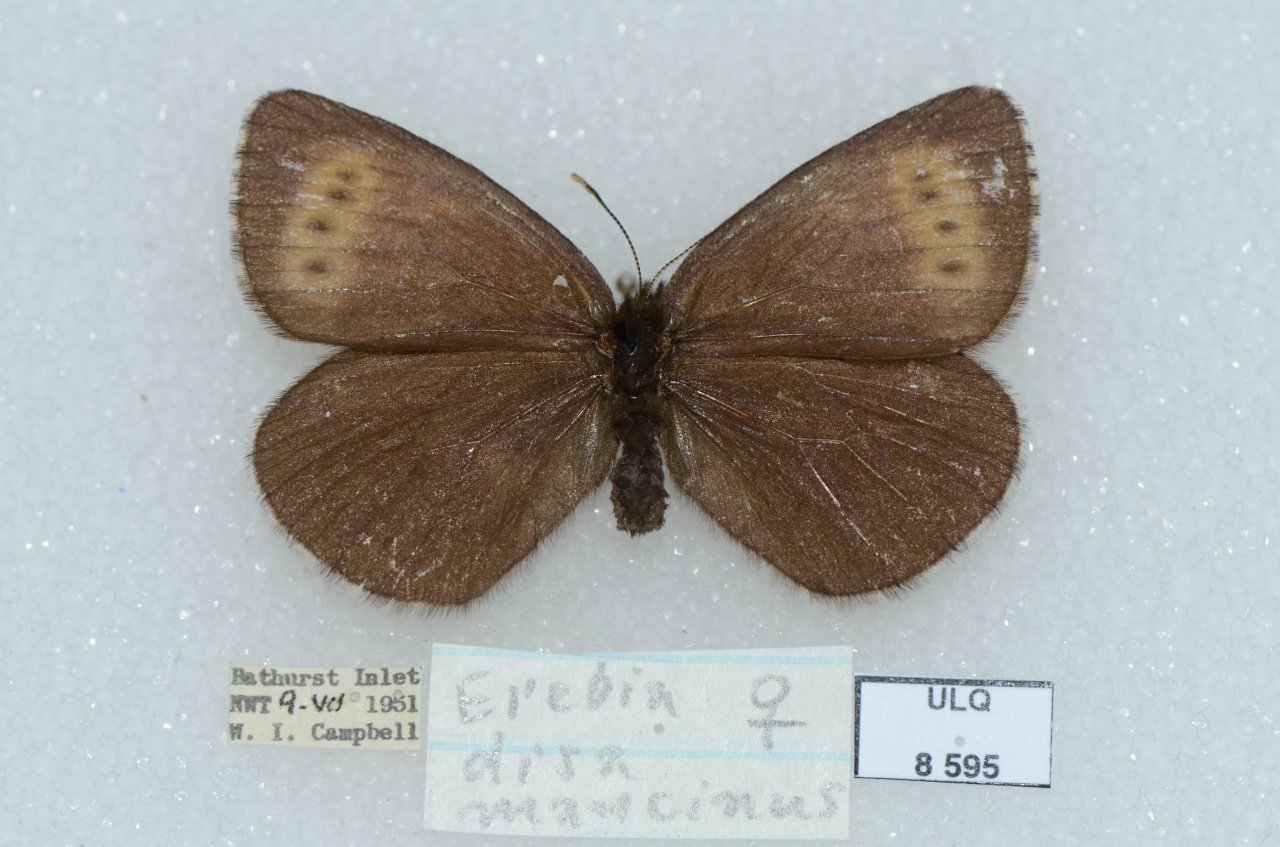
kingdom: Animalia
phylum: Arthropoda
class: Insecta
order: Lepidoptera
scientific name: Lepidoptera
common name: Butterflies
